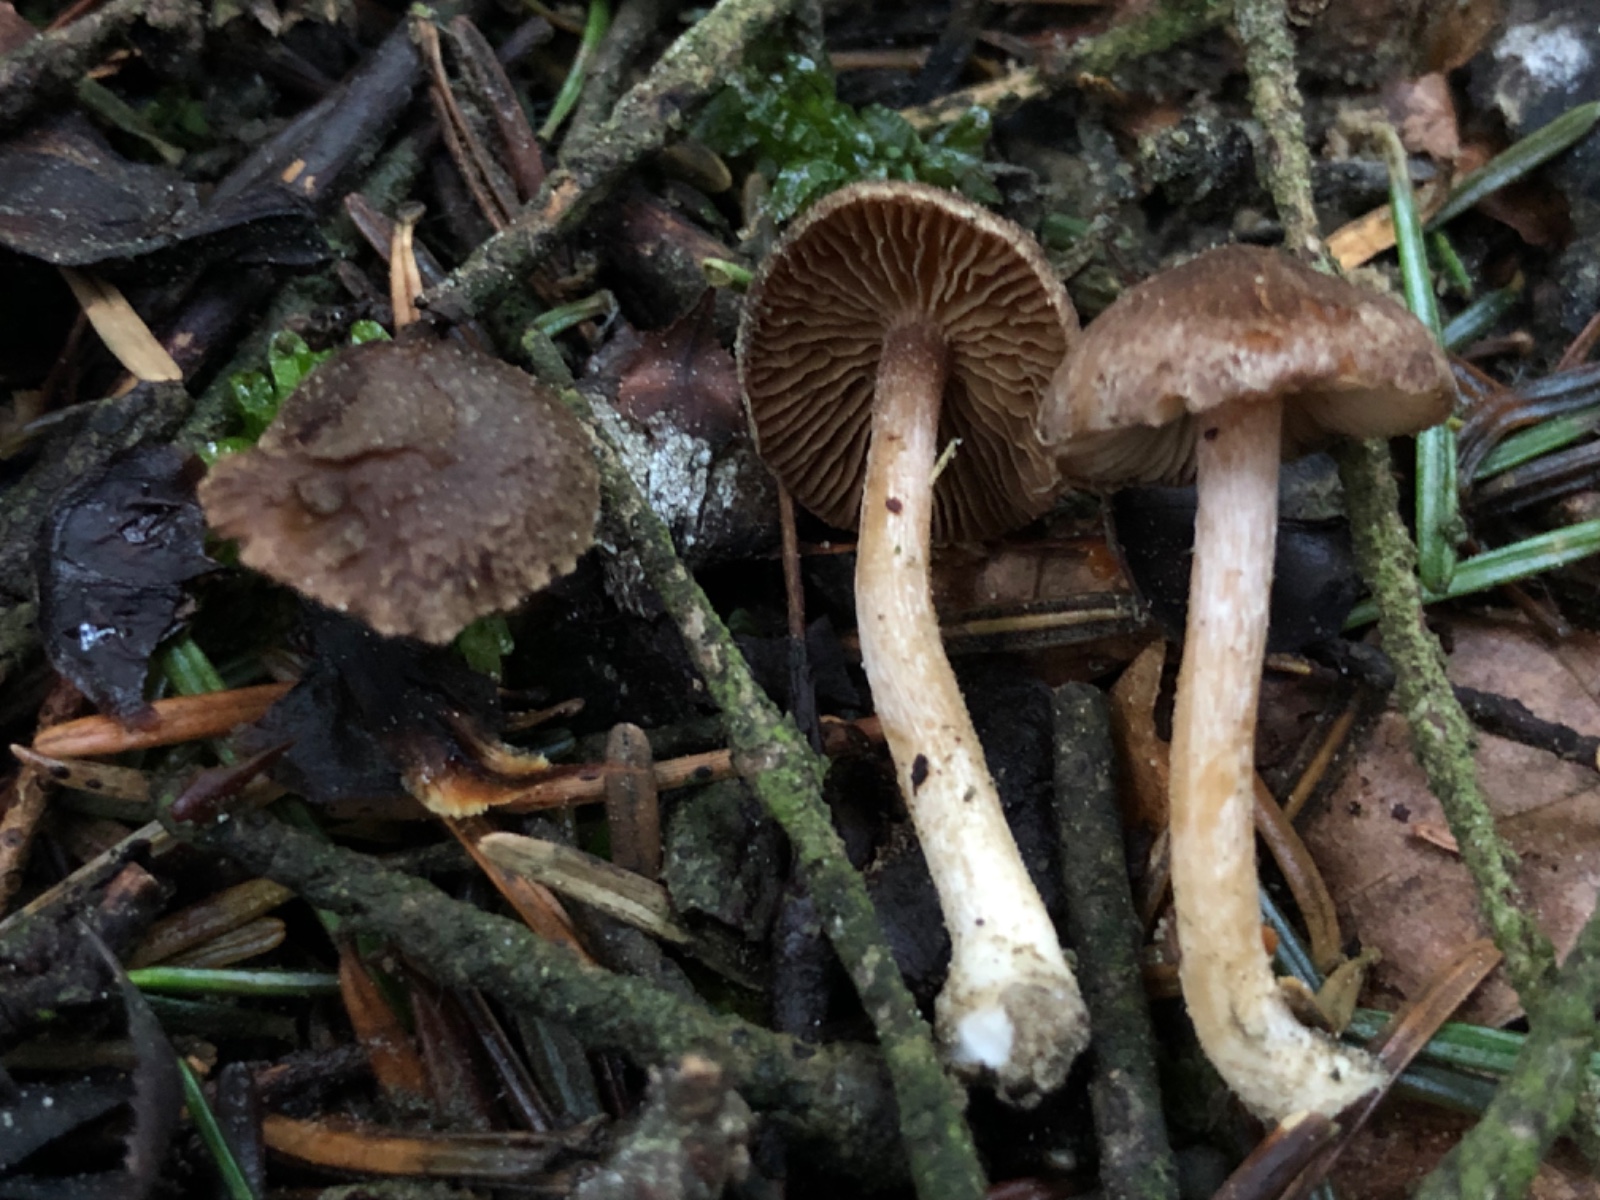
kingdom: Fungi
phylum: Basidiomycota
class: Agaricomycetes
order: Agaricales
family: Inocybaceae
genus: Inocybe
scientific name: Inocybe
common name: trævlhat
